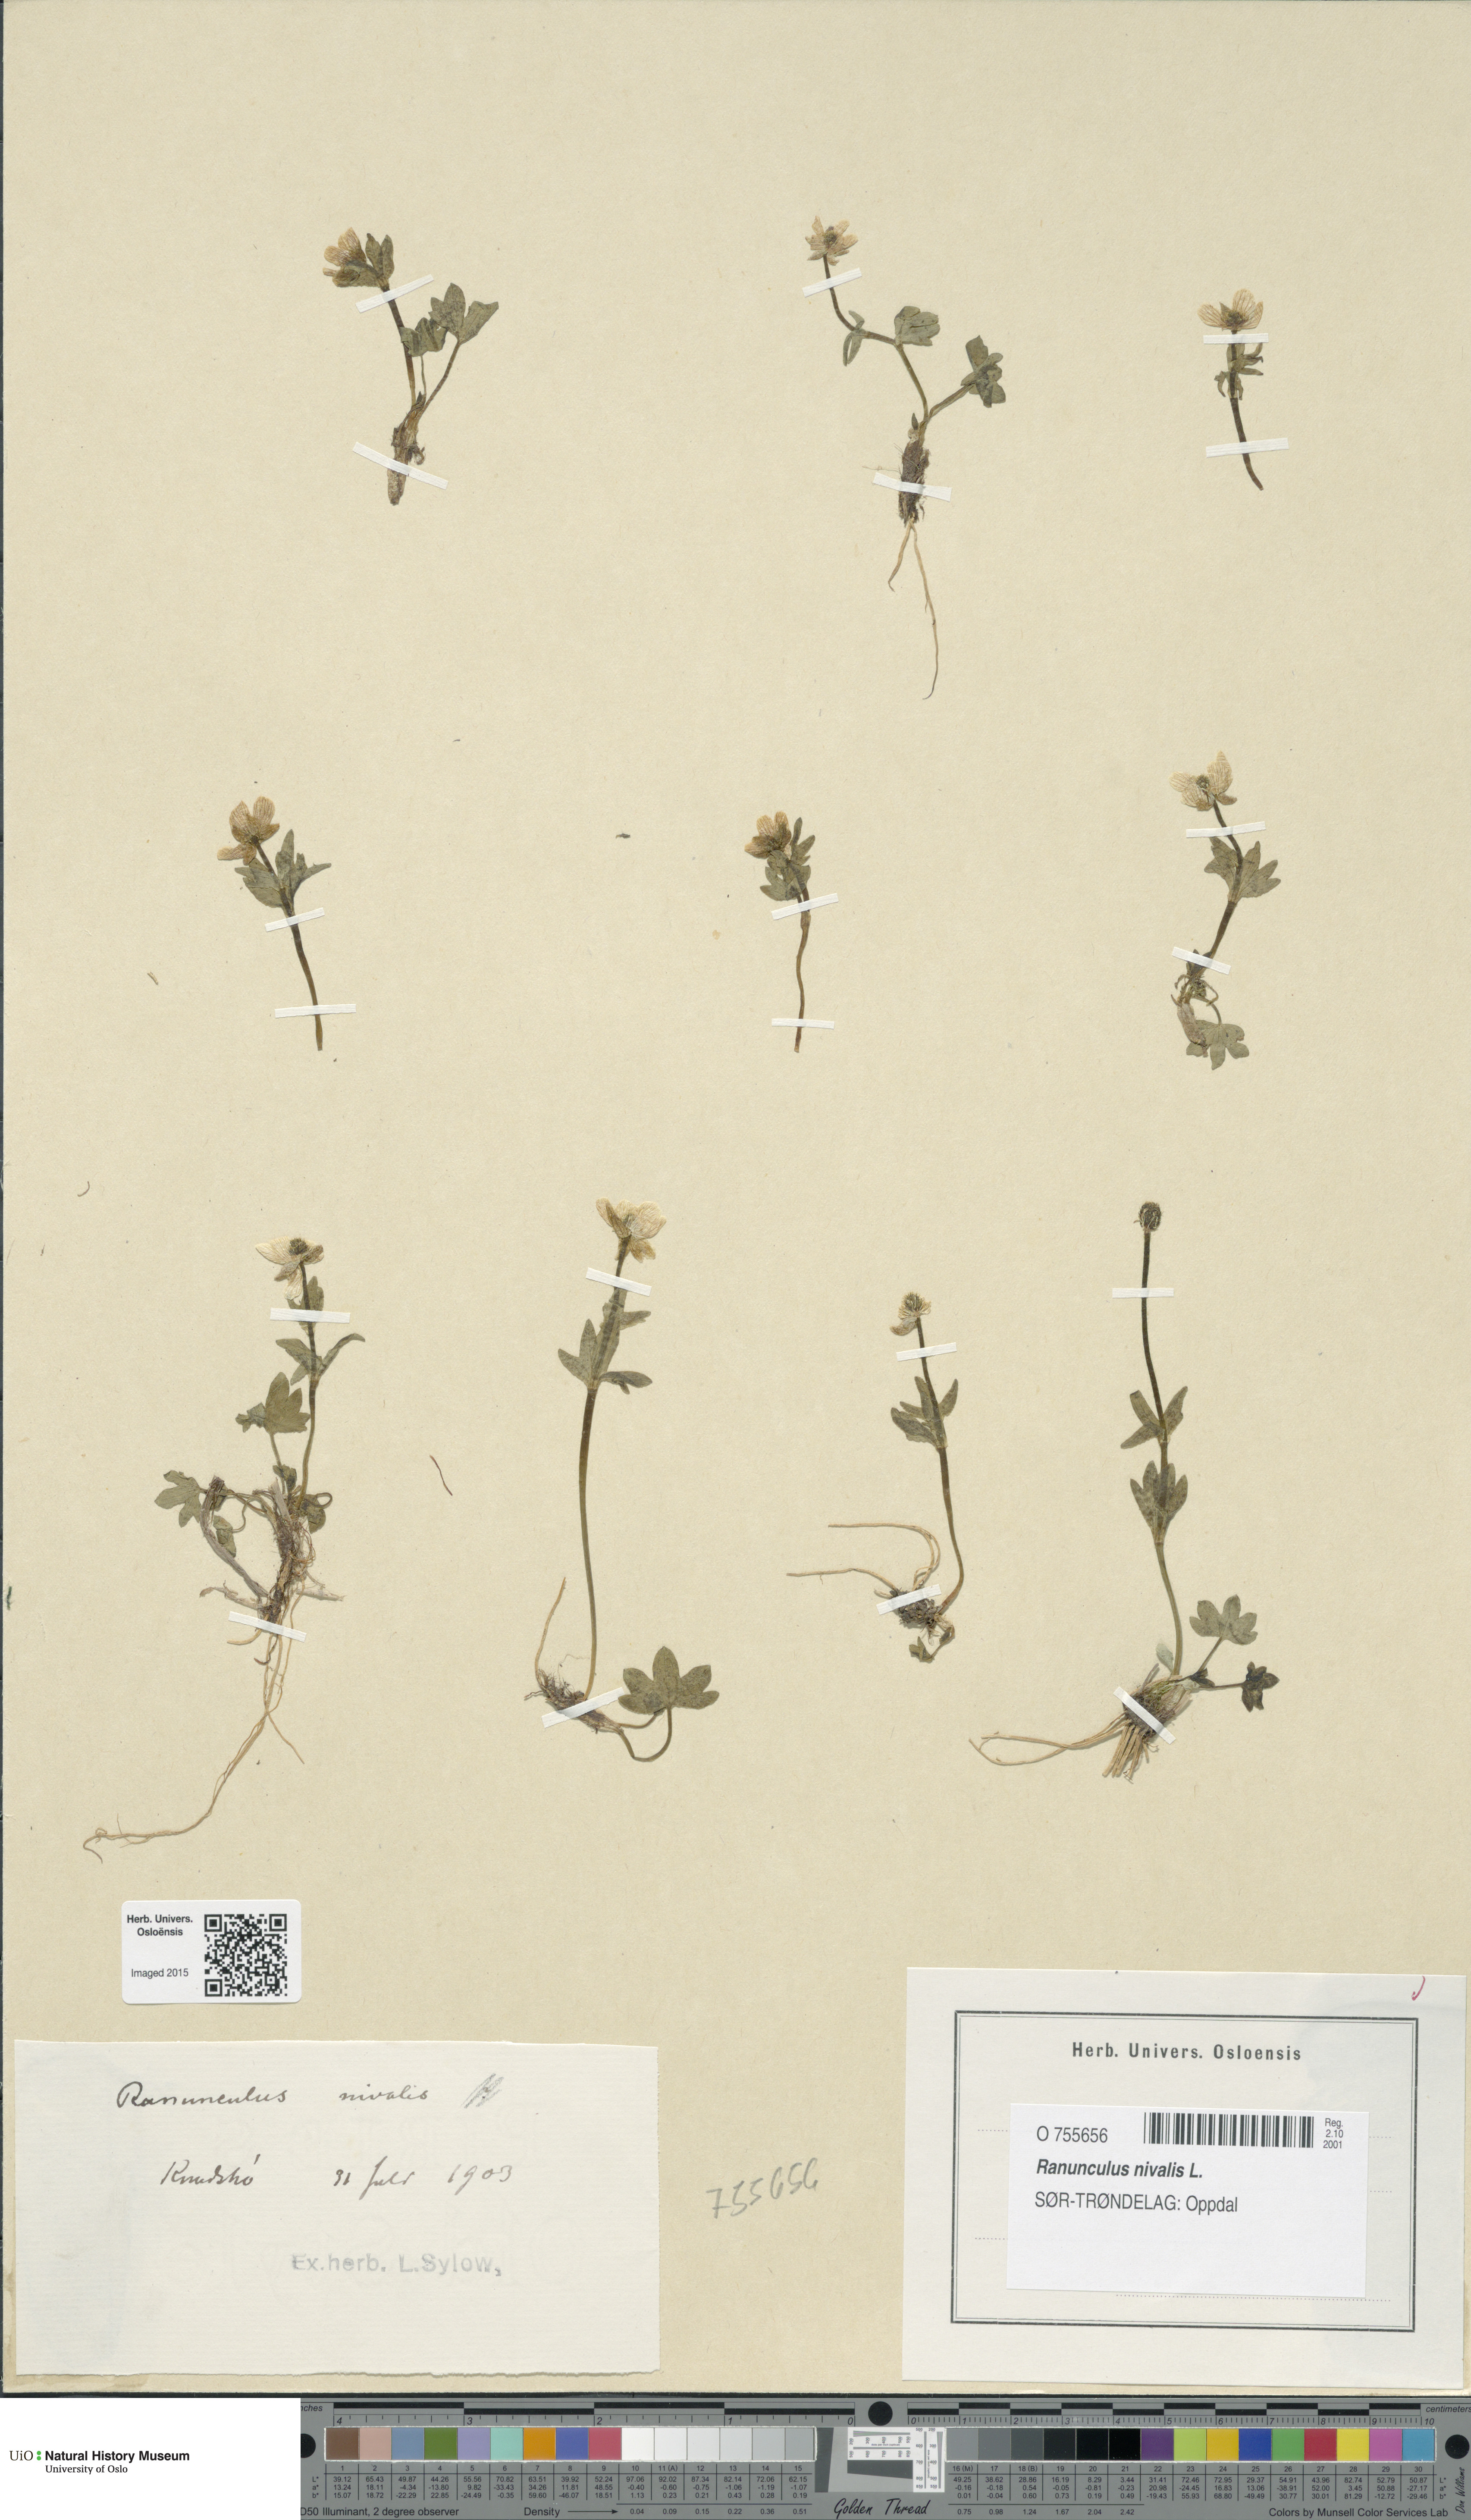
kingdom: Plantae
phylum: Tracheophyta
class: Magnoliopsida
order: Ranunculales
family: Ranunculaceae
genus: Ranunculus
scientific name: Ranunculus nivalis
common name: Snow buttercup
